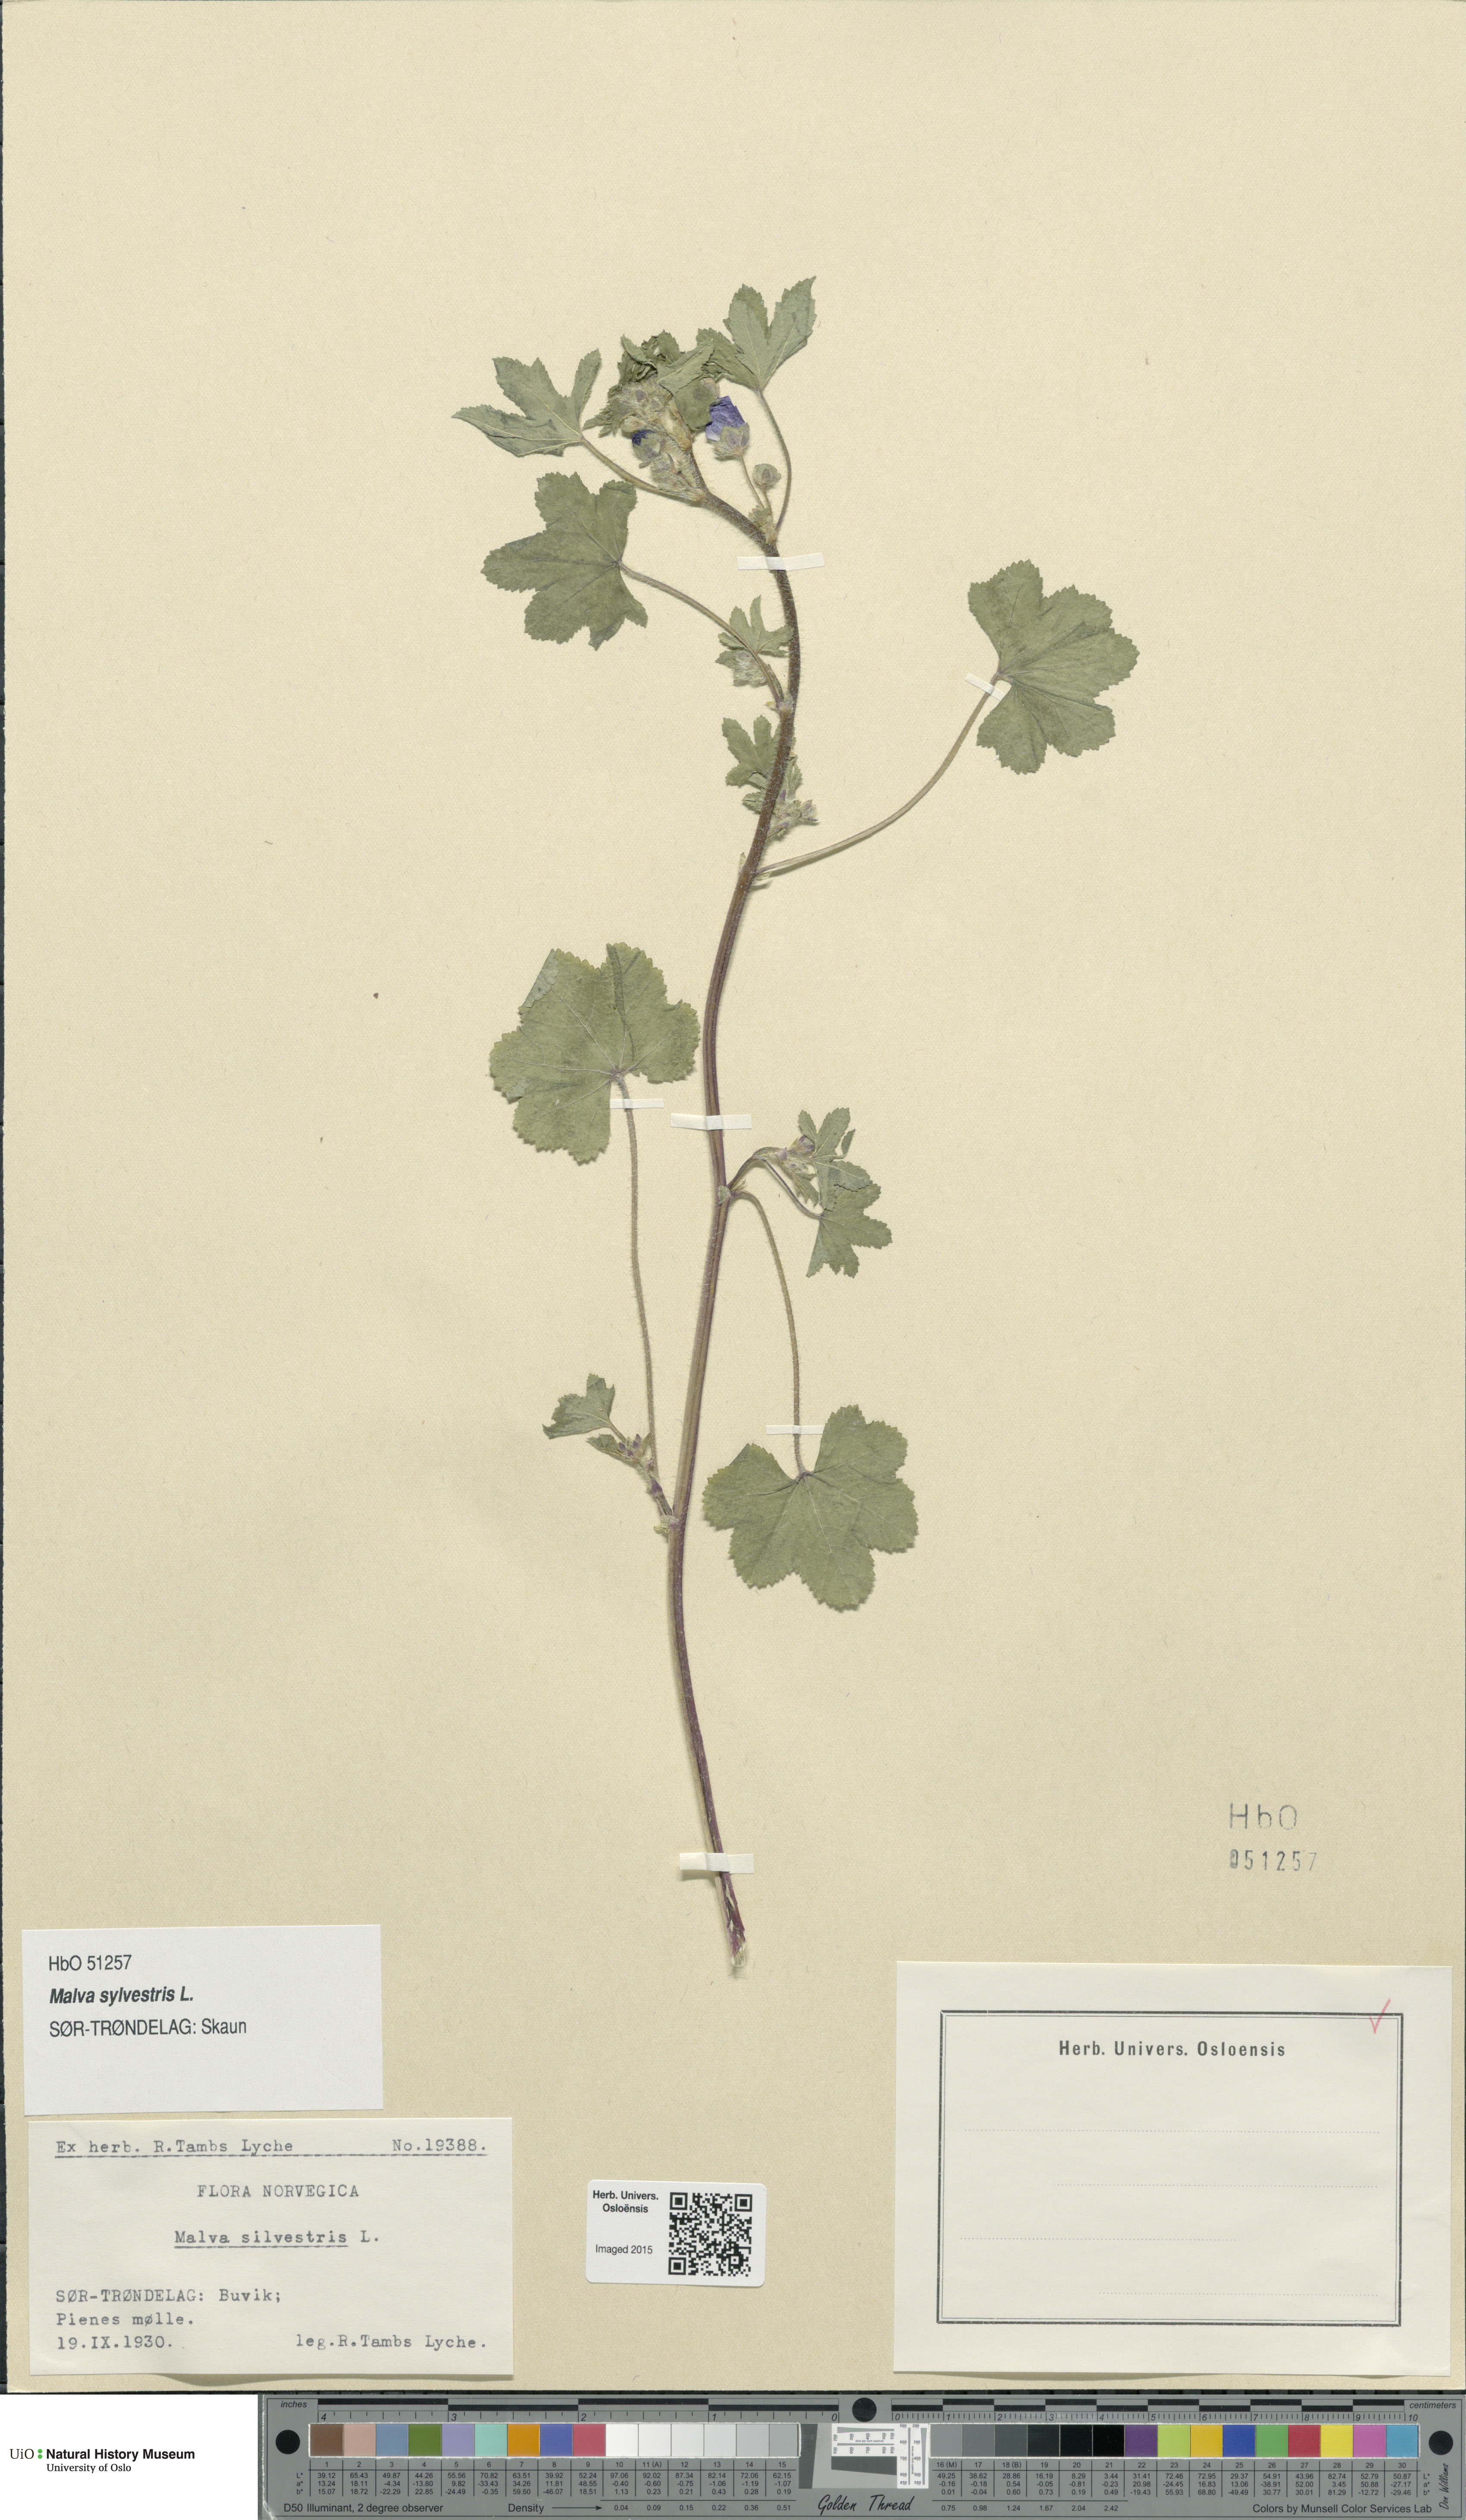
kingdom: Plantae
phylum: Tracheophyta
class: Magnoliopsida
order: Malvales
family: Malvaceae
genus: Malva
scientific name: Malva sylvestris
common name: Common mallow
